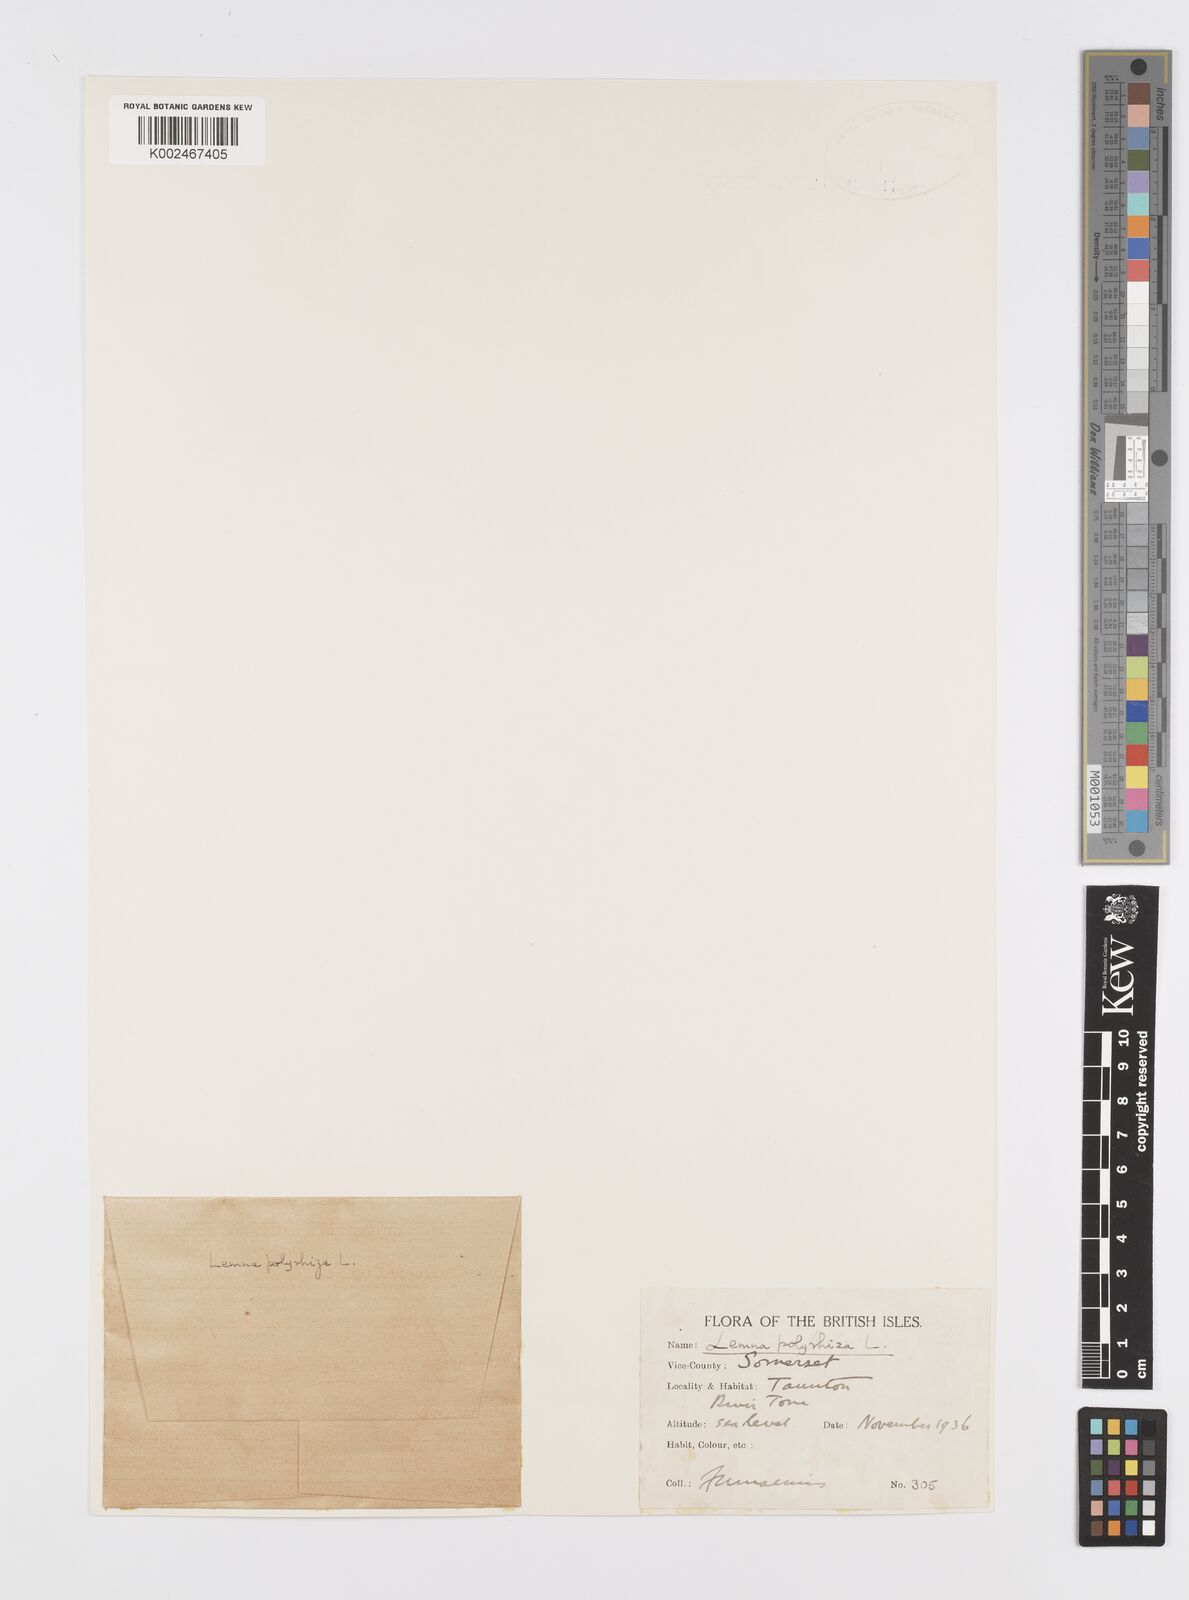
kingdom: Plantae
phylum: Tracheophyta
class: Liliopsida
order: Alismatales
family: Araceae
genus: Spirodela
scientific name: Spirodela polyrhiza
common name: Great duckweed
